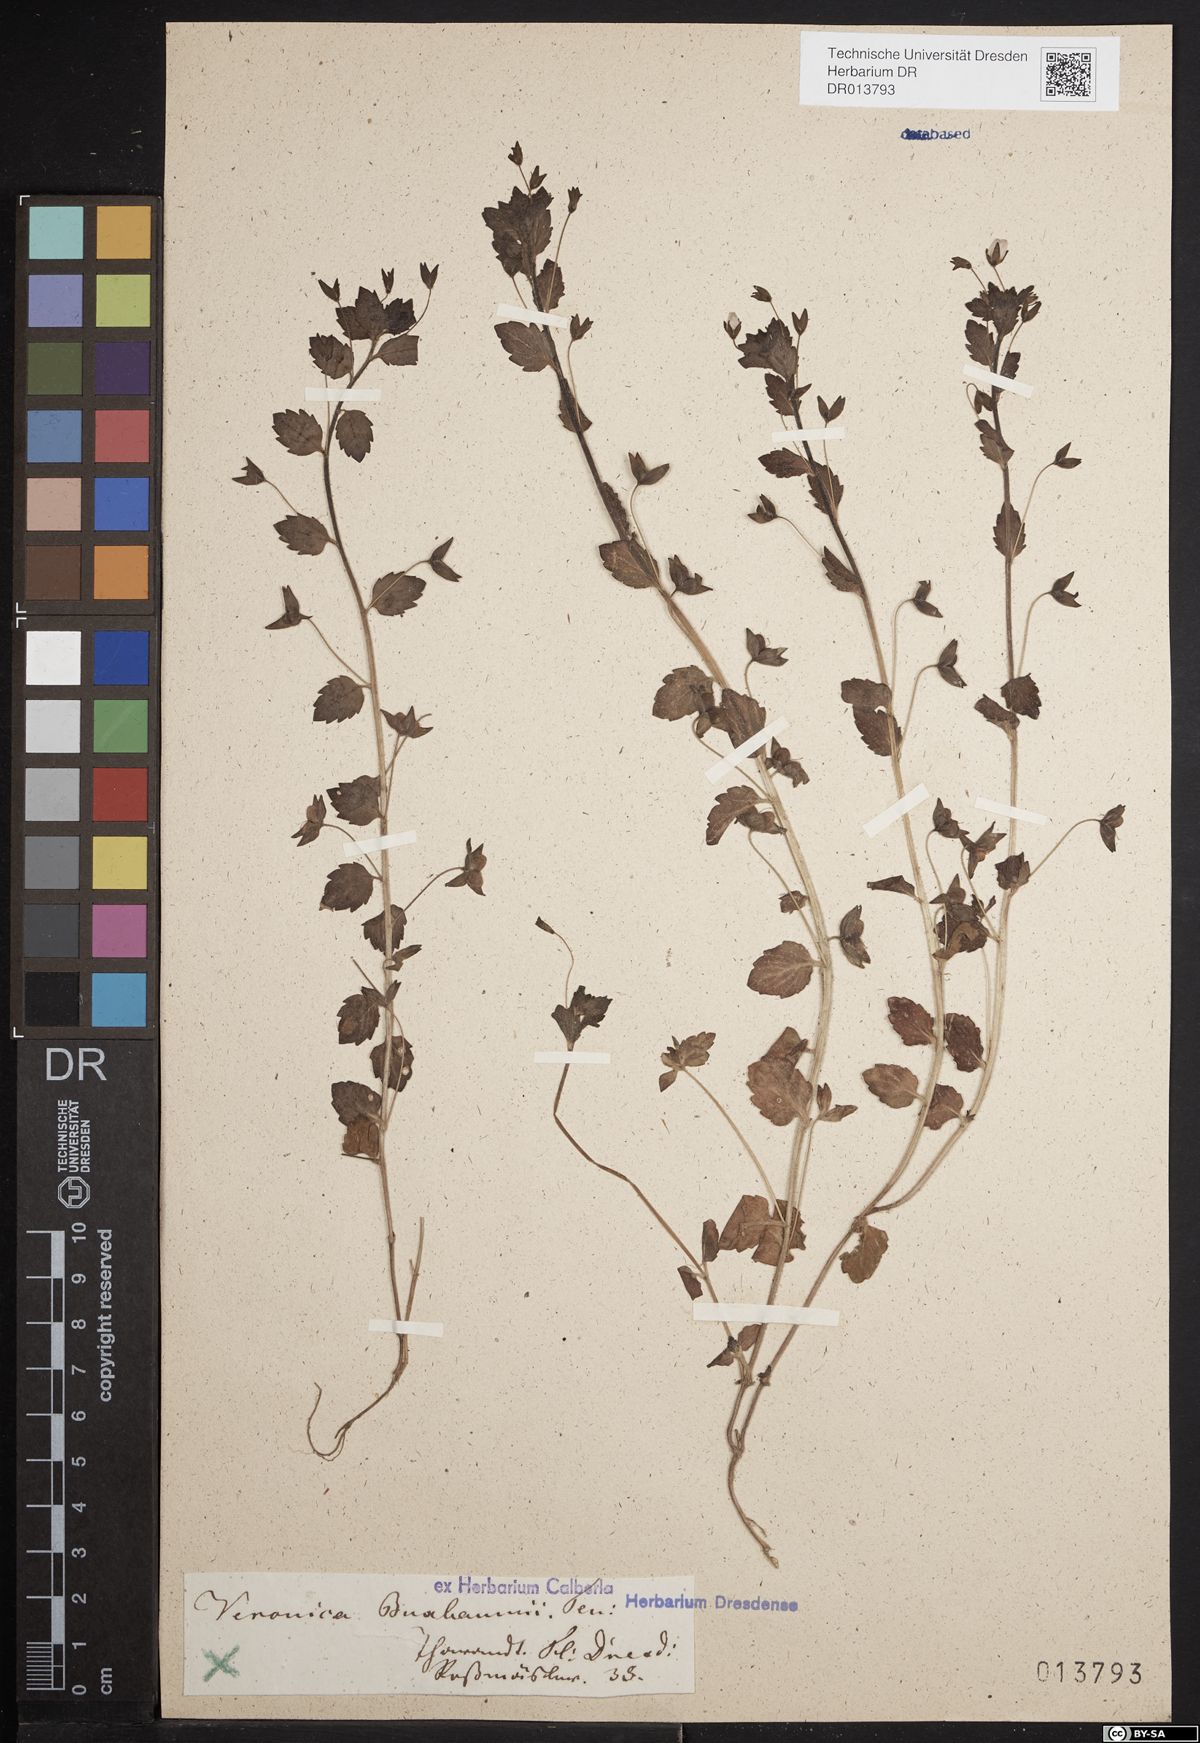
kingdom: Plantae
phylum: Tracheophyta
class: Magnoliopsida
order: Lamiales
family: Plantaginaceae
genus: Veronica
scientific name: Veronica persica
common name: Common field-speedwell
